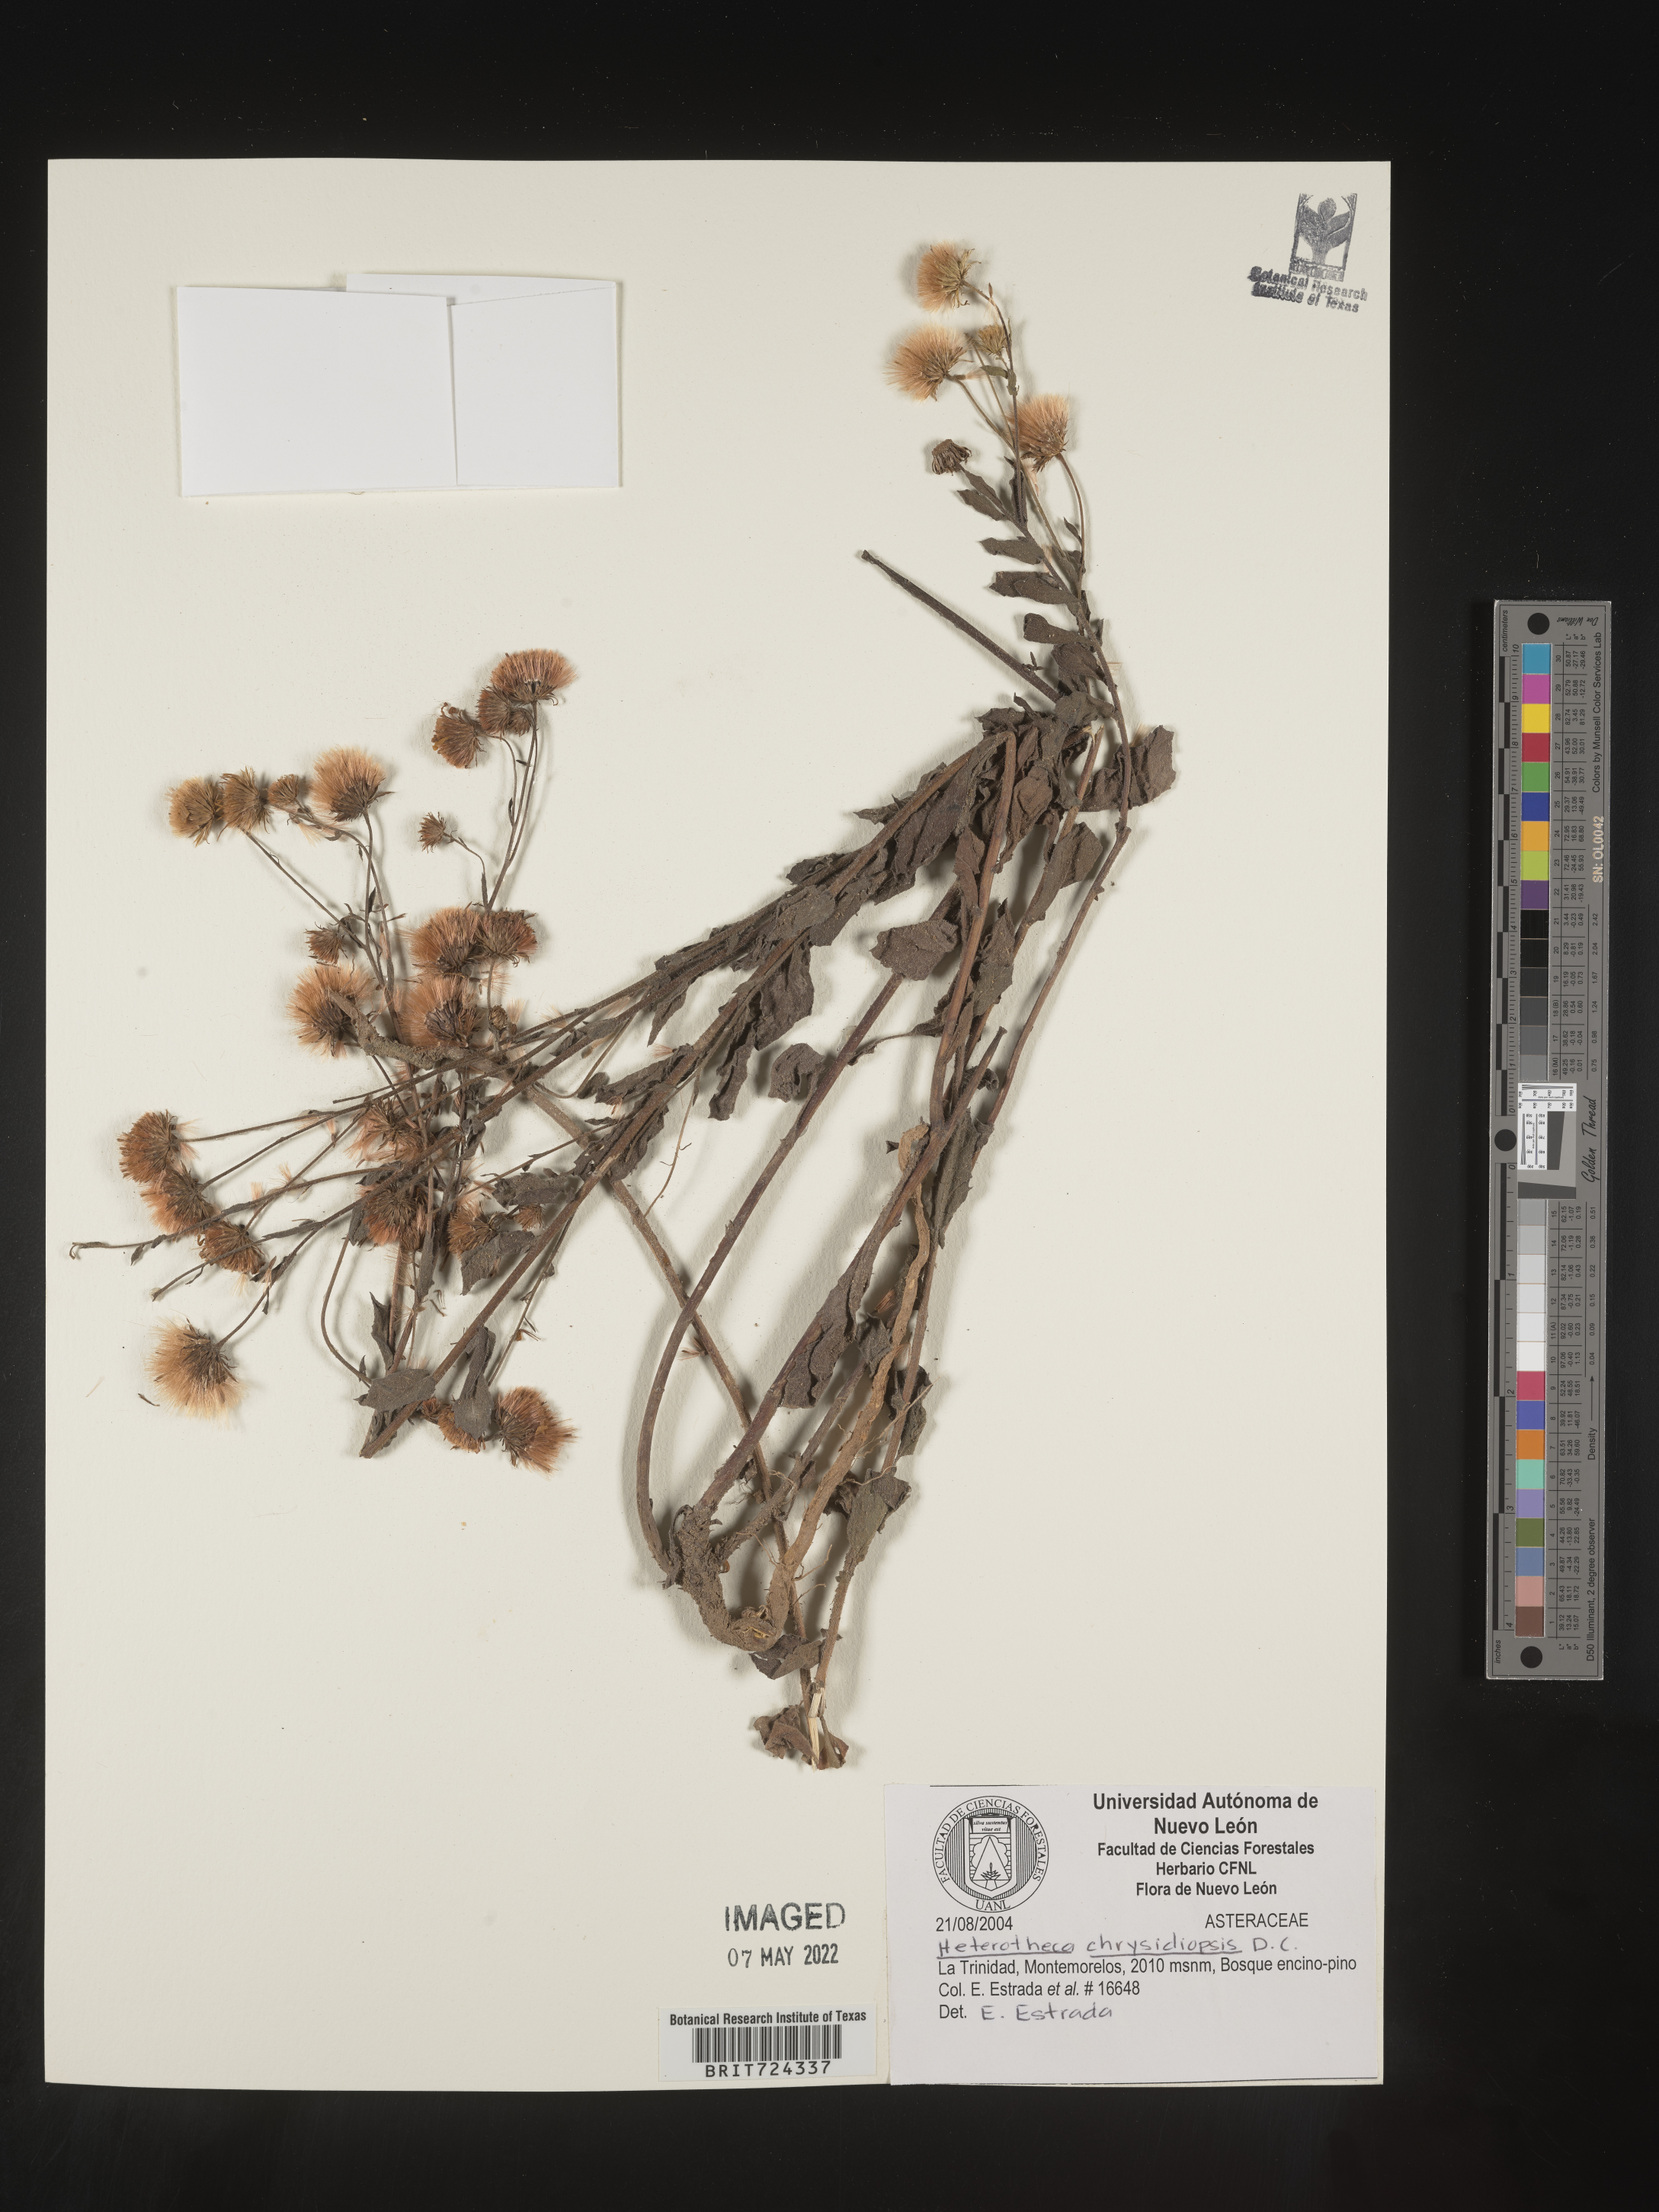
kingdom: Plantae
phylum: Tracheophyta
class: Magnoliopsida
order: Asterales
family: Asteraceae
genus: Heterotheca
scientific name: Heterotheca
